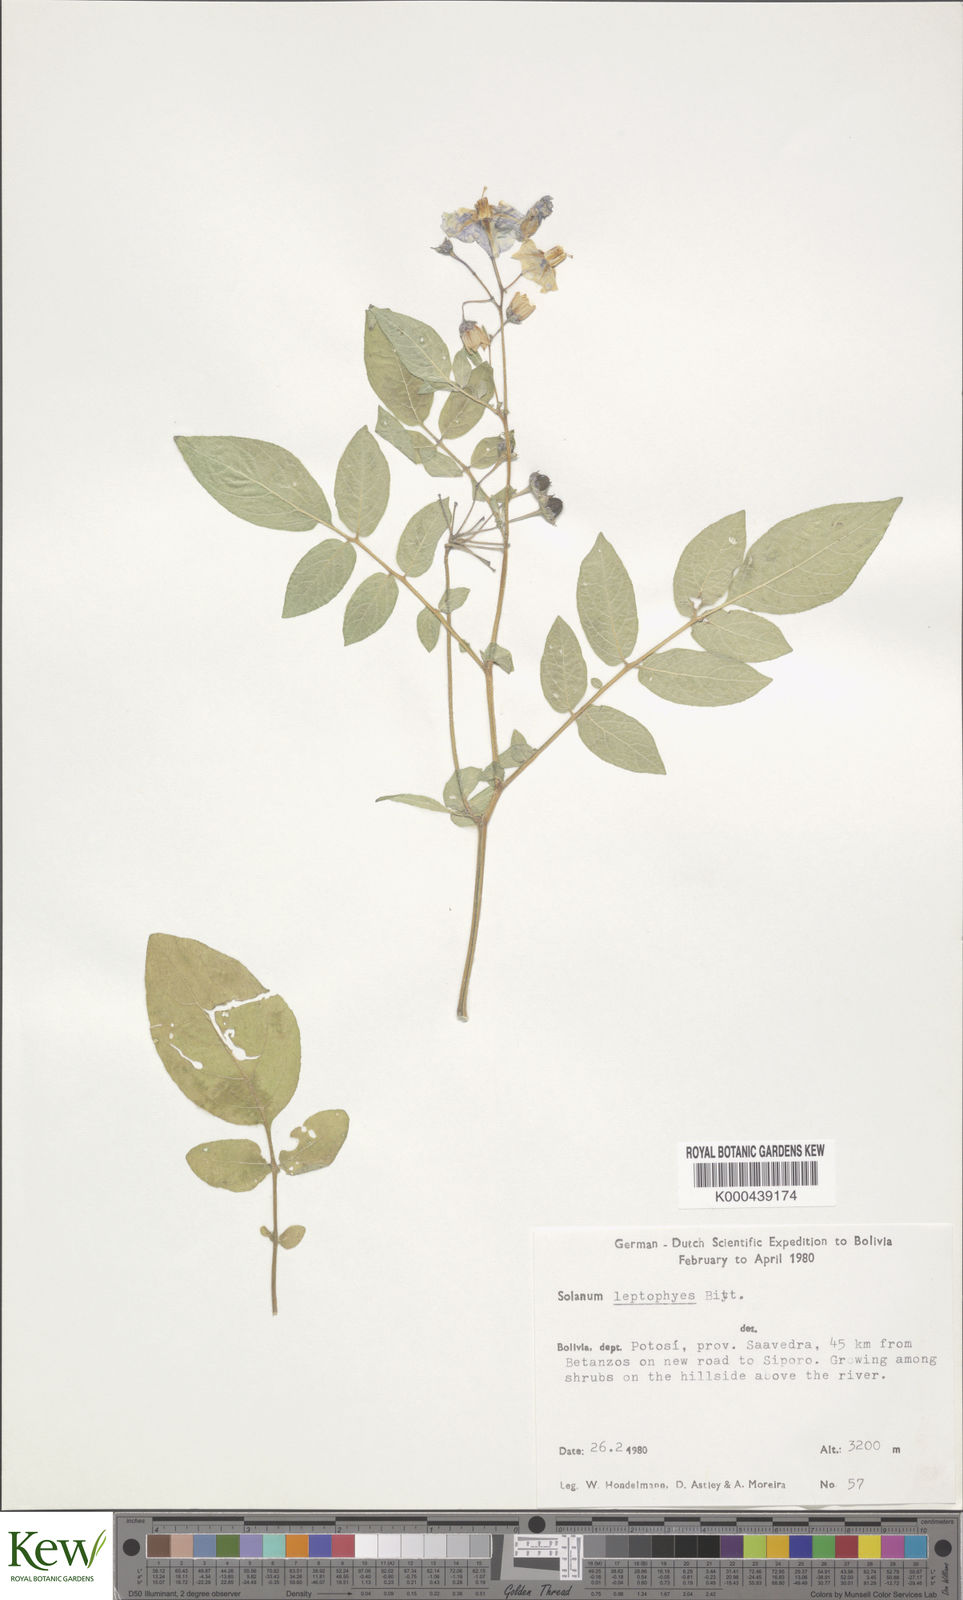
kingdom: Plantae
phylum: Tracheophyta
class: Magnoliopsida
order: Solanales
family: Solanaceae
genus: Solanum
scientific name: Solanum brevicaule
